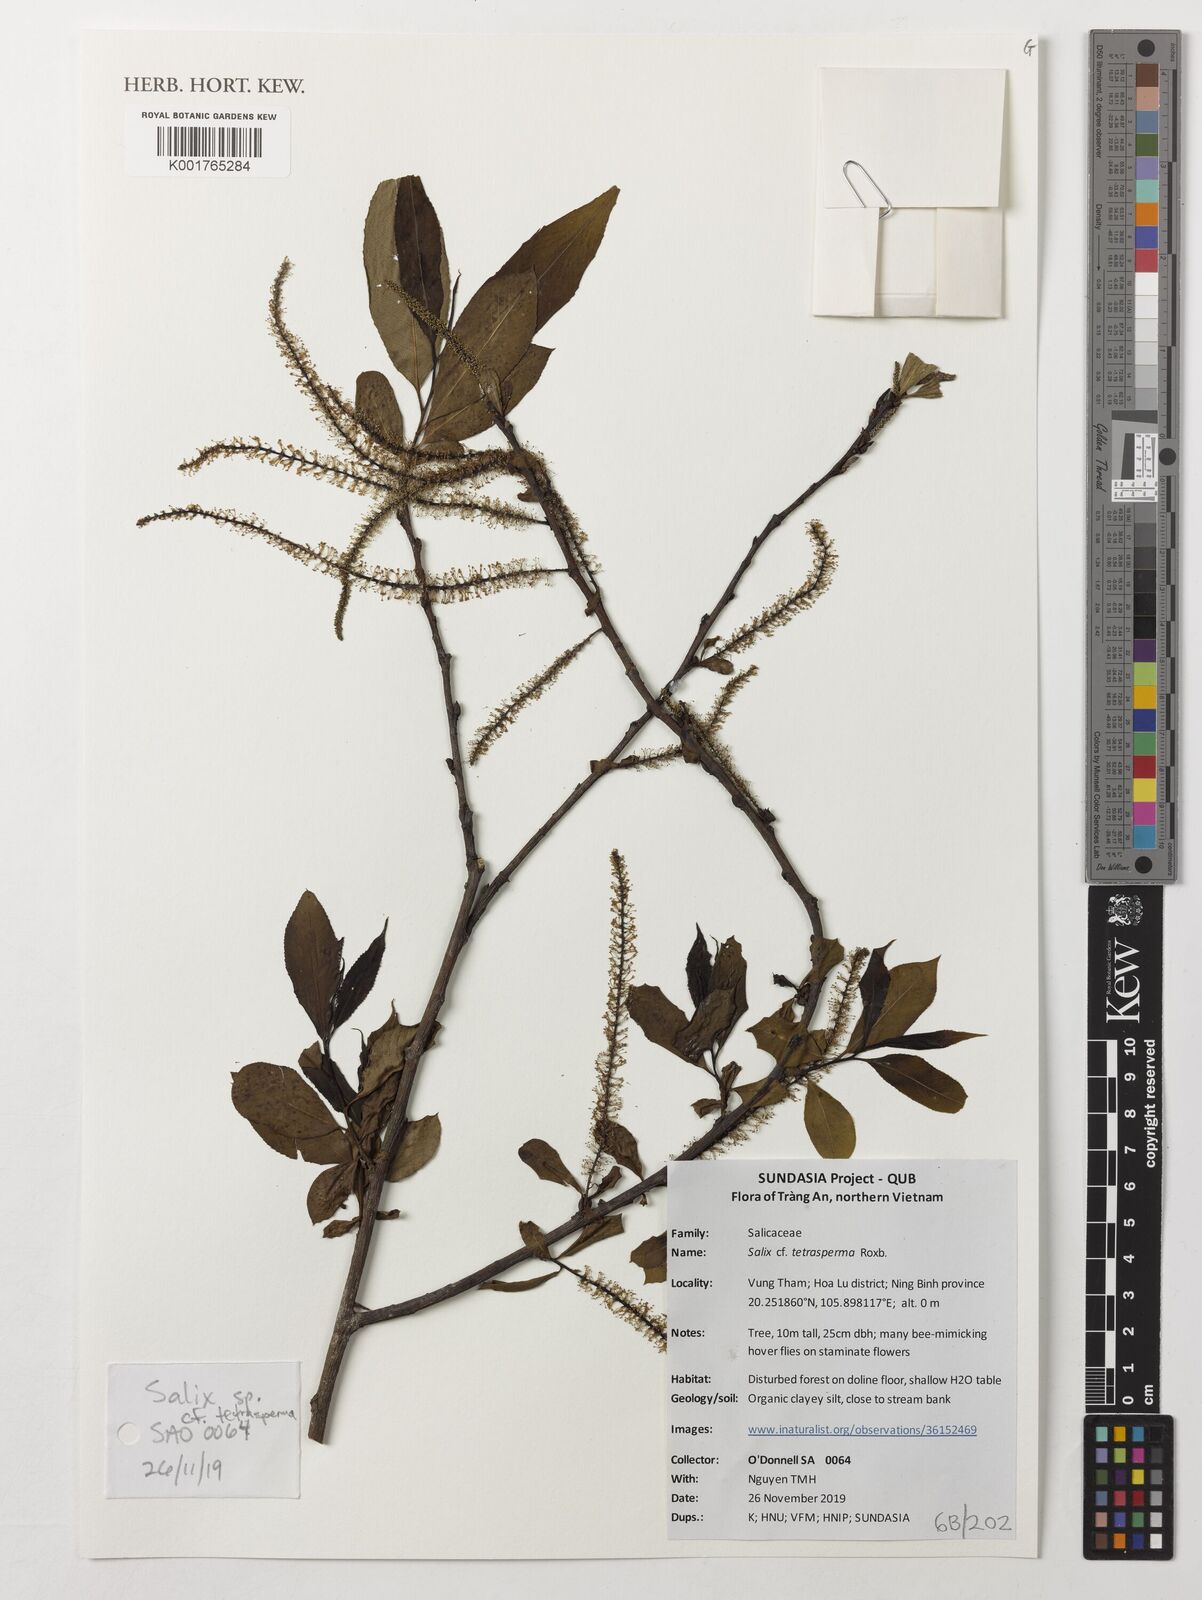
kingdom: Plantae
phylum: Tracheophyta
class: Magnoliopsida
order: Malpighiales
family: Salicaceae
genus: Salix
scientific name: Salix tetrasperma
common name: Indian willow
